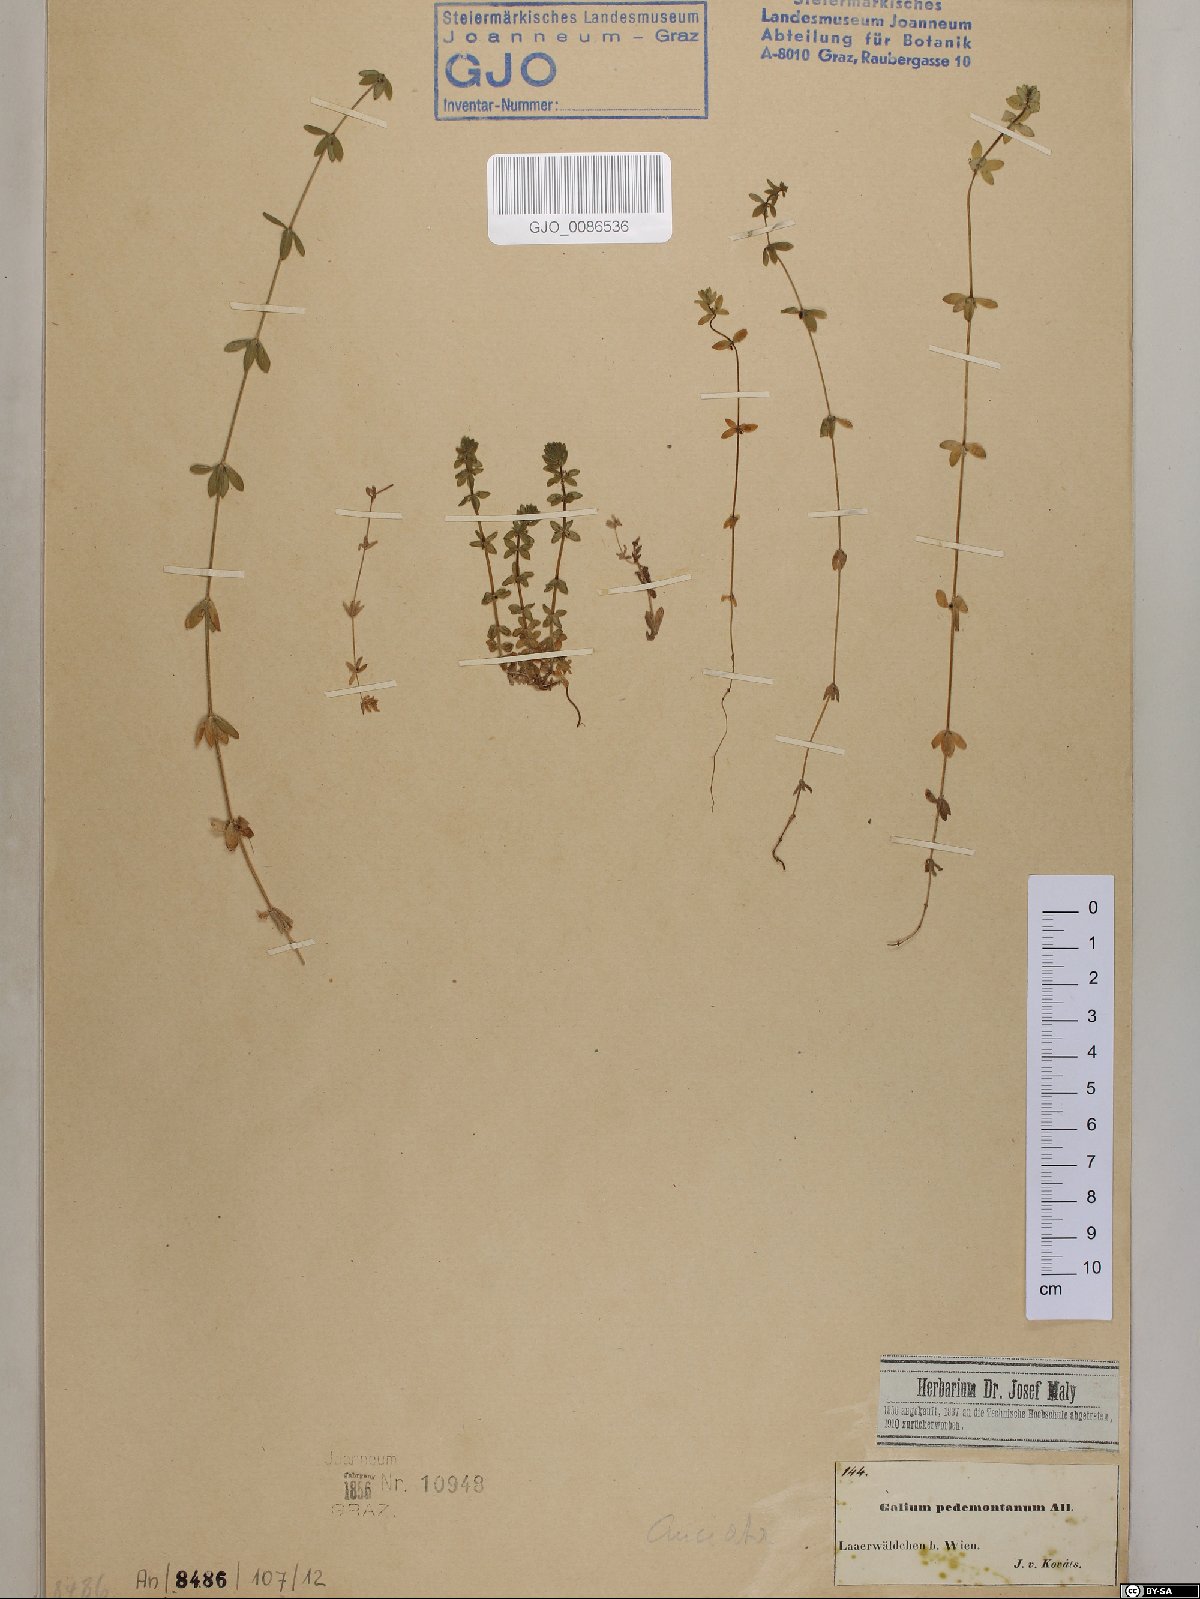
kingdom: Plantae
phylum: Tracheophyta
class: Magnoliopsida
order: Gentianales
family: Rubiaceae
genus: Cruciata
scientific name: Cruciata pedemontana
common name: Piedmont bedstraw
